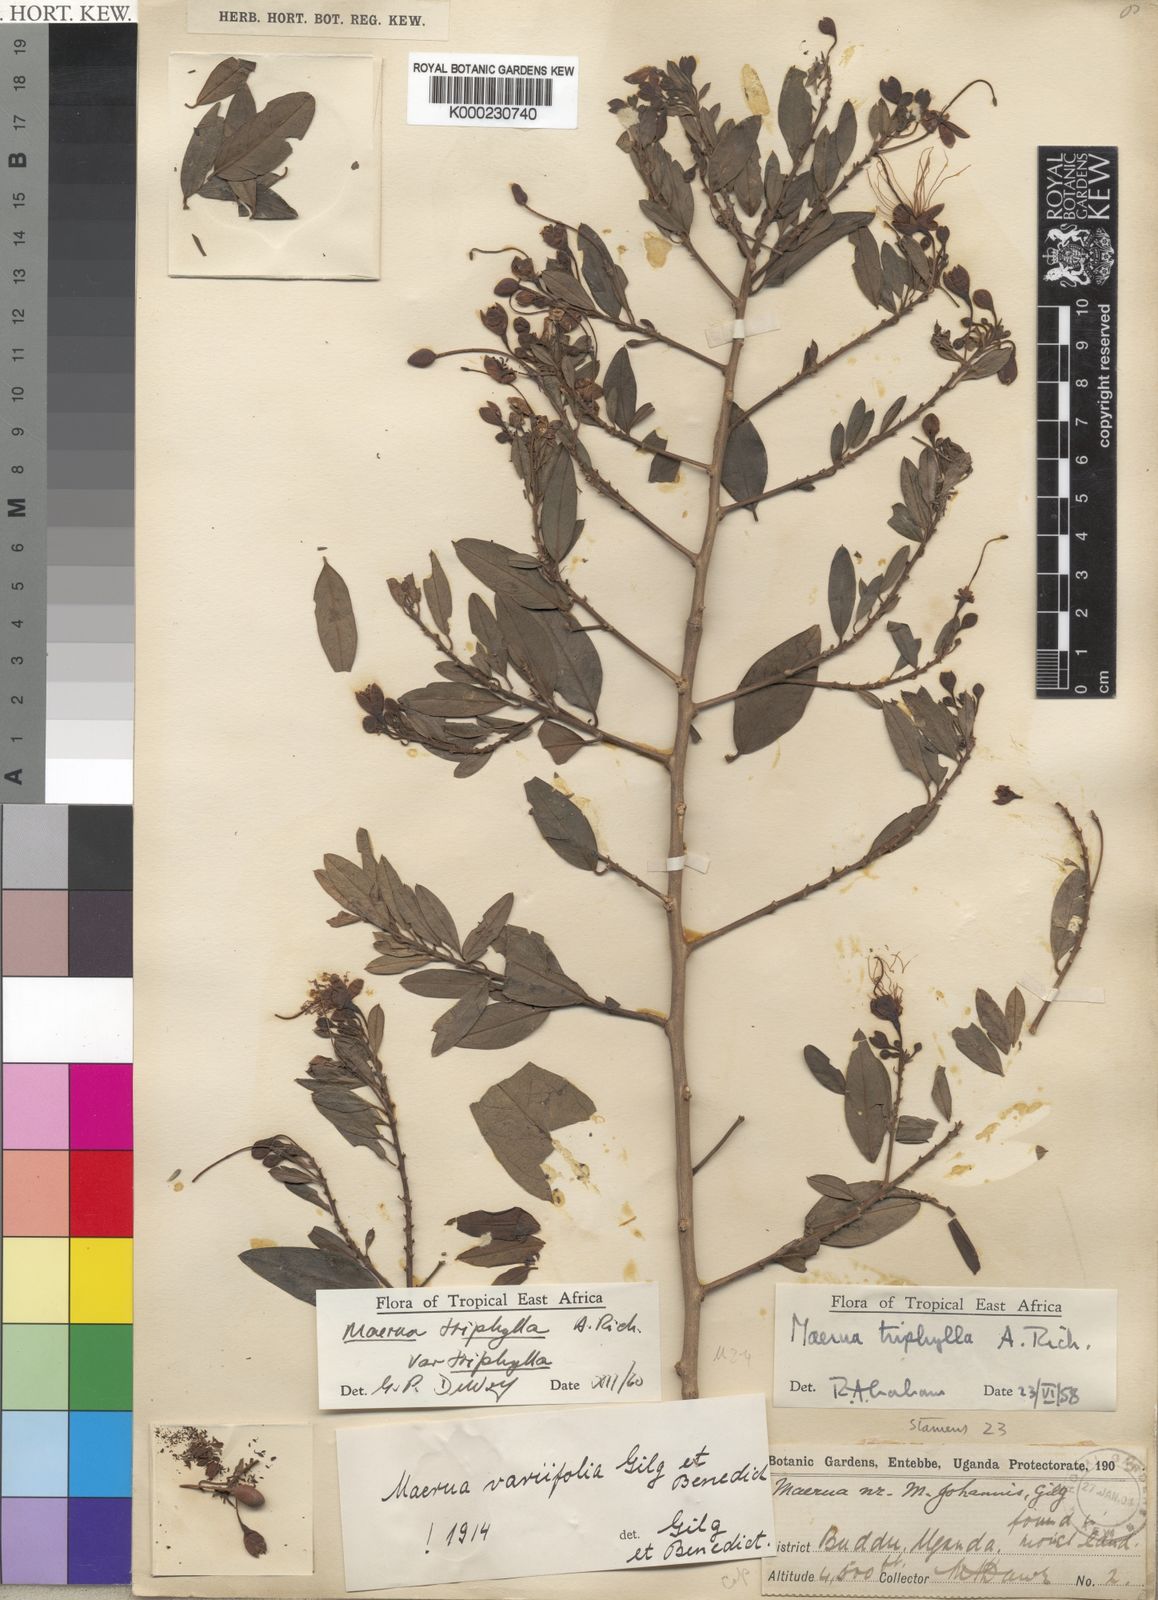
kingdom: Plantae
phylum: Tracheophyta
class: Magnoliopsida
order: Brassicales
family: Capparaceae
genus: Maerua
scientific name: Maerua triphylla
